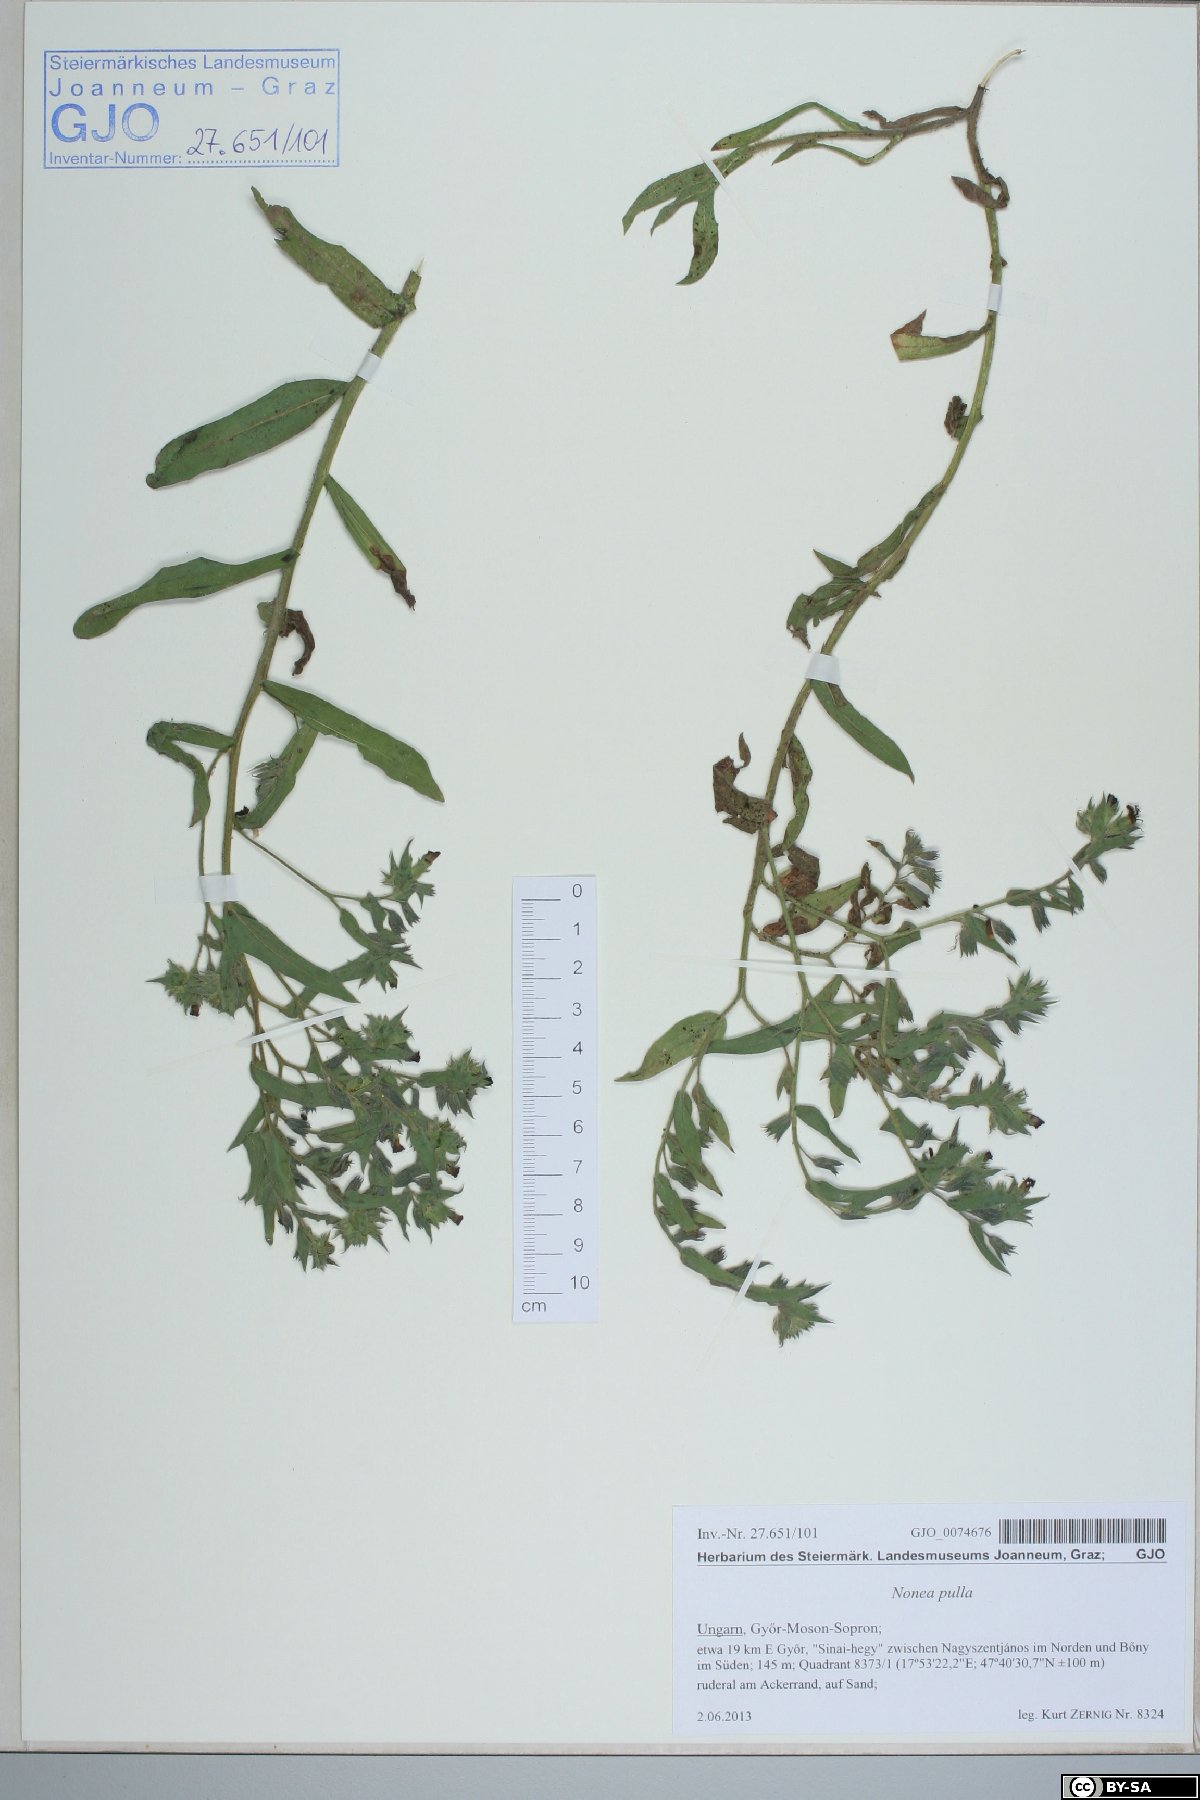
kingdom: Plantae
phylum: Tracheophyta
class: Magnoliopsida
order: Boraginales
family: Boraginaceae
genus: Nonea
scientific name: Nonea pulla
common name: Brown nonea
